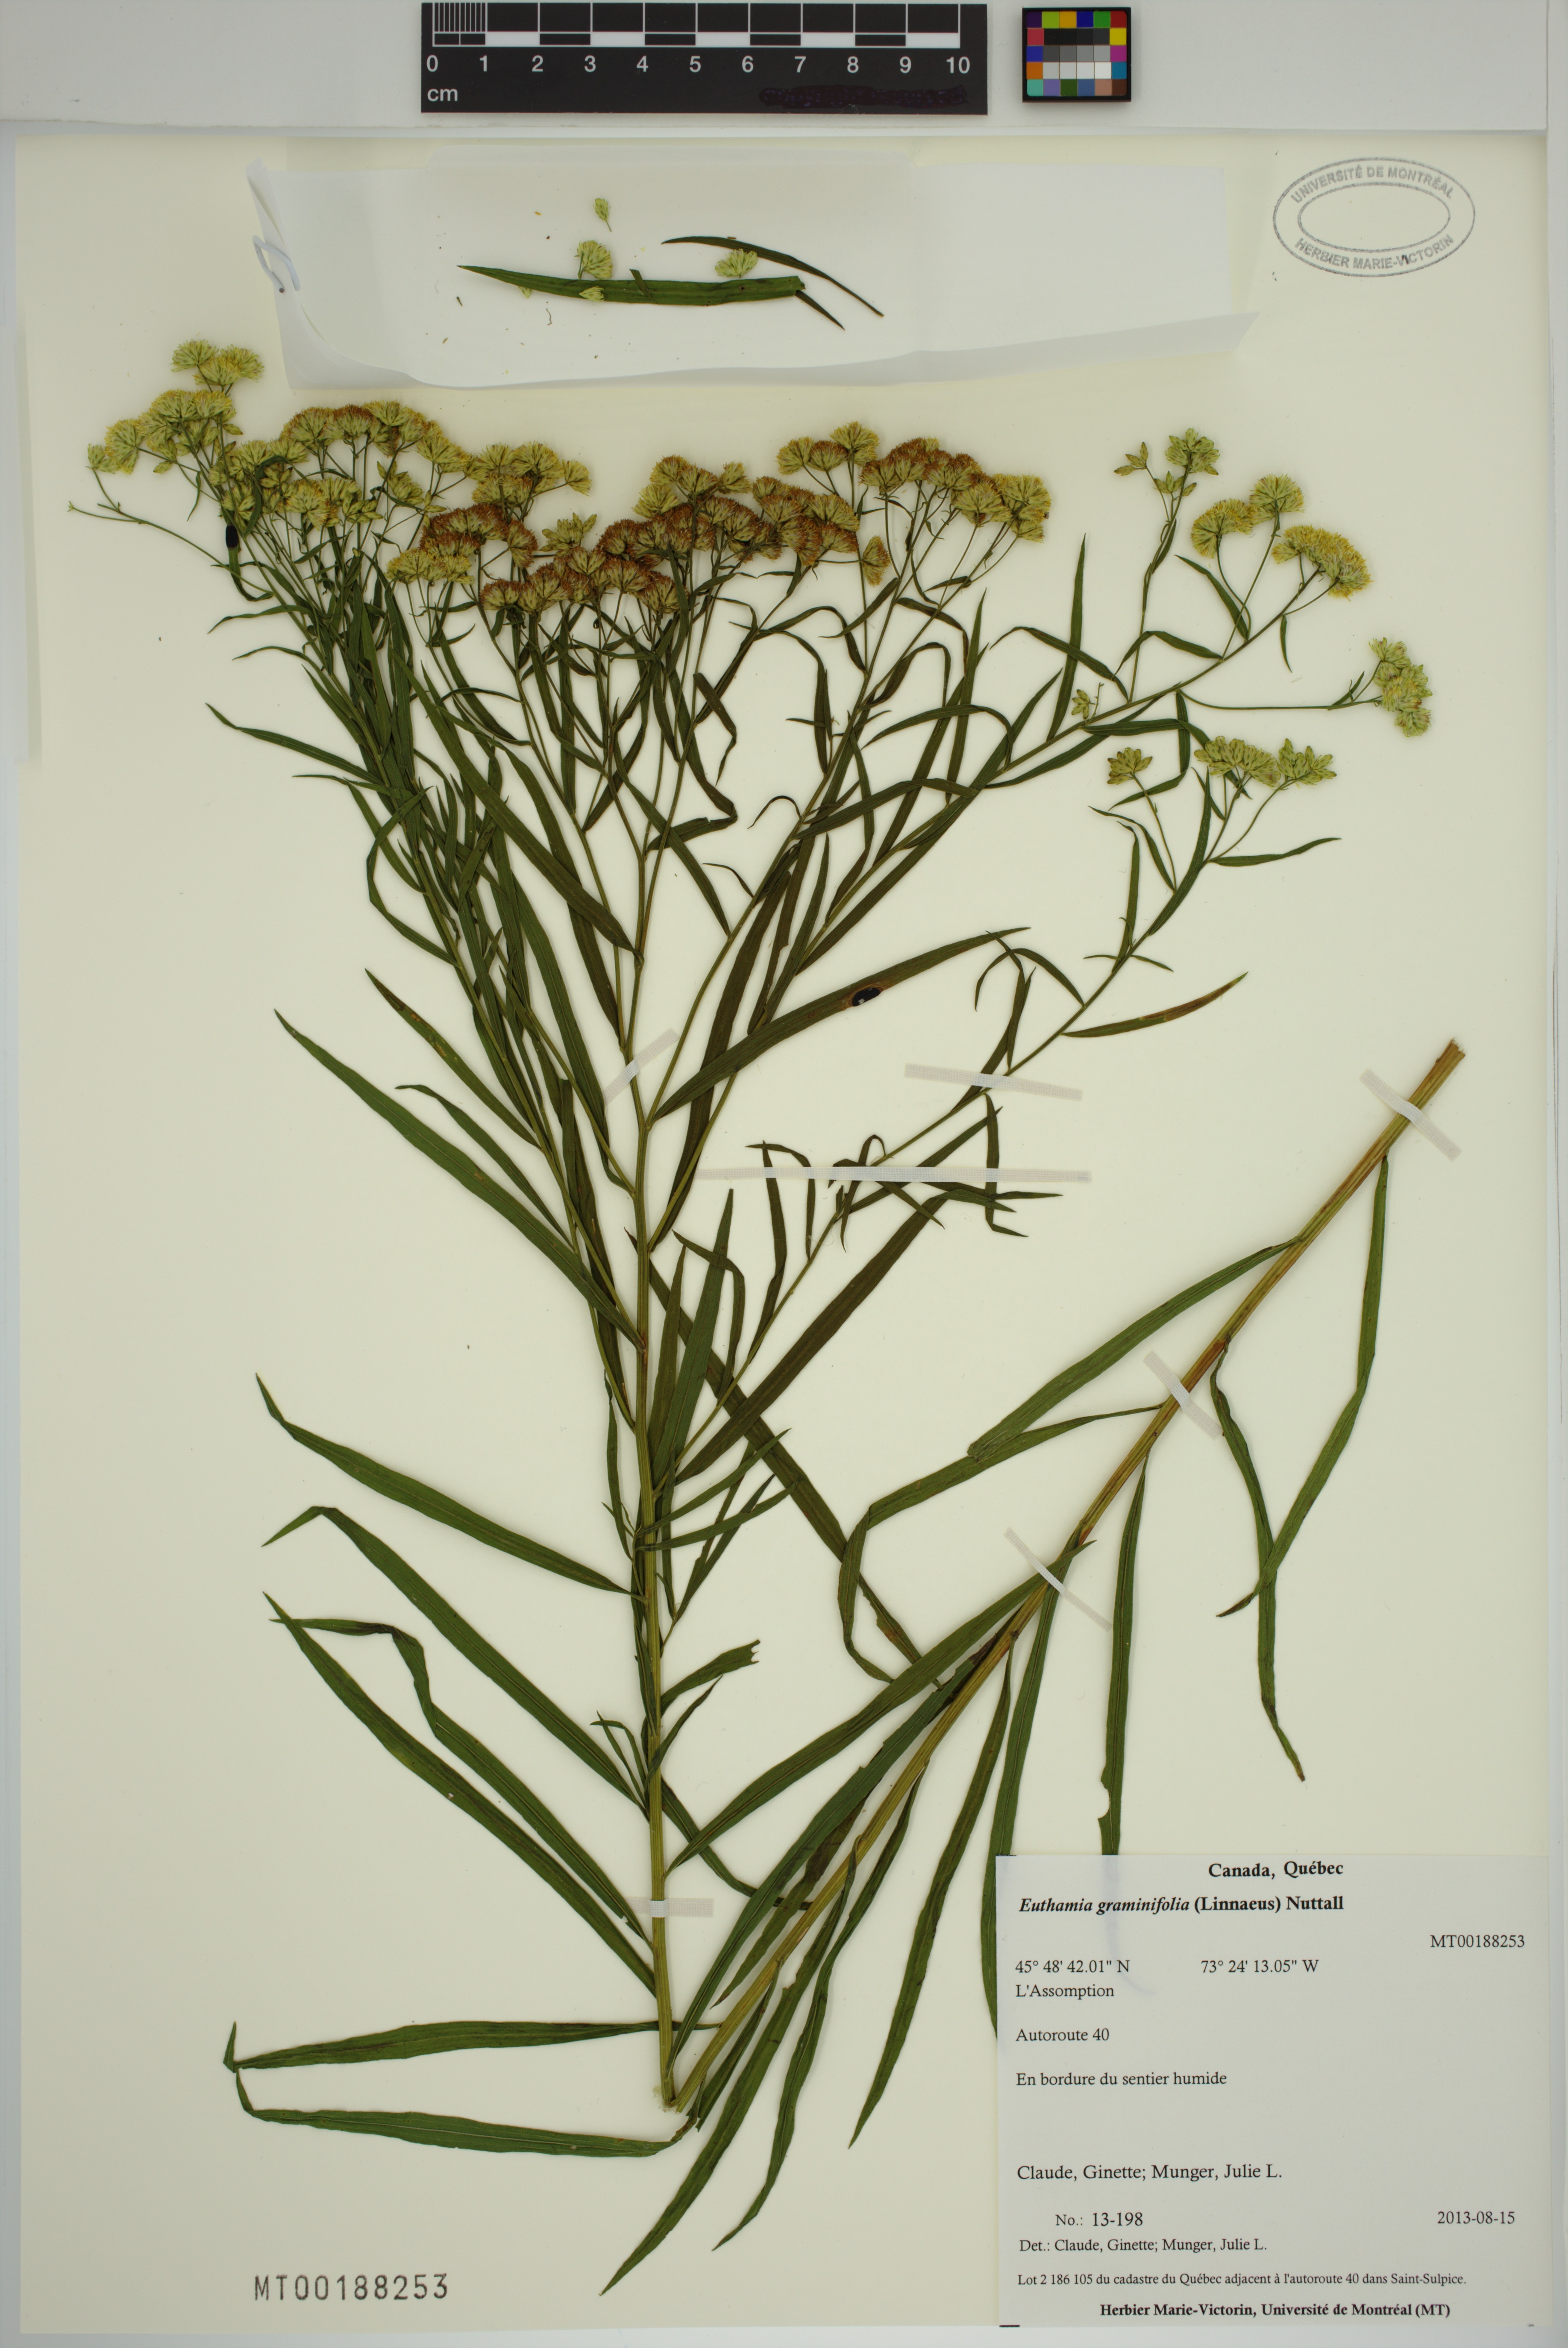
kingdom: Plantae
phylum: Tracheophyta
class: Magnoliopsida
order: Asterales
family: Asteraceae
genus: Euthamia
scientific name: Euthamia graminifolia
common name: Common goldentop
